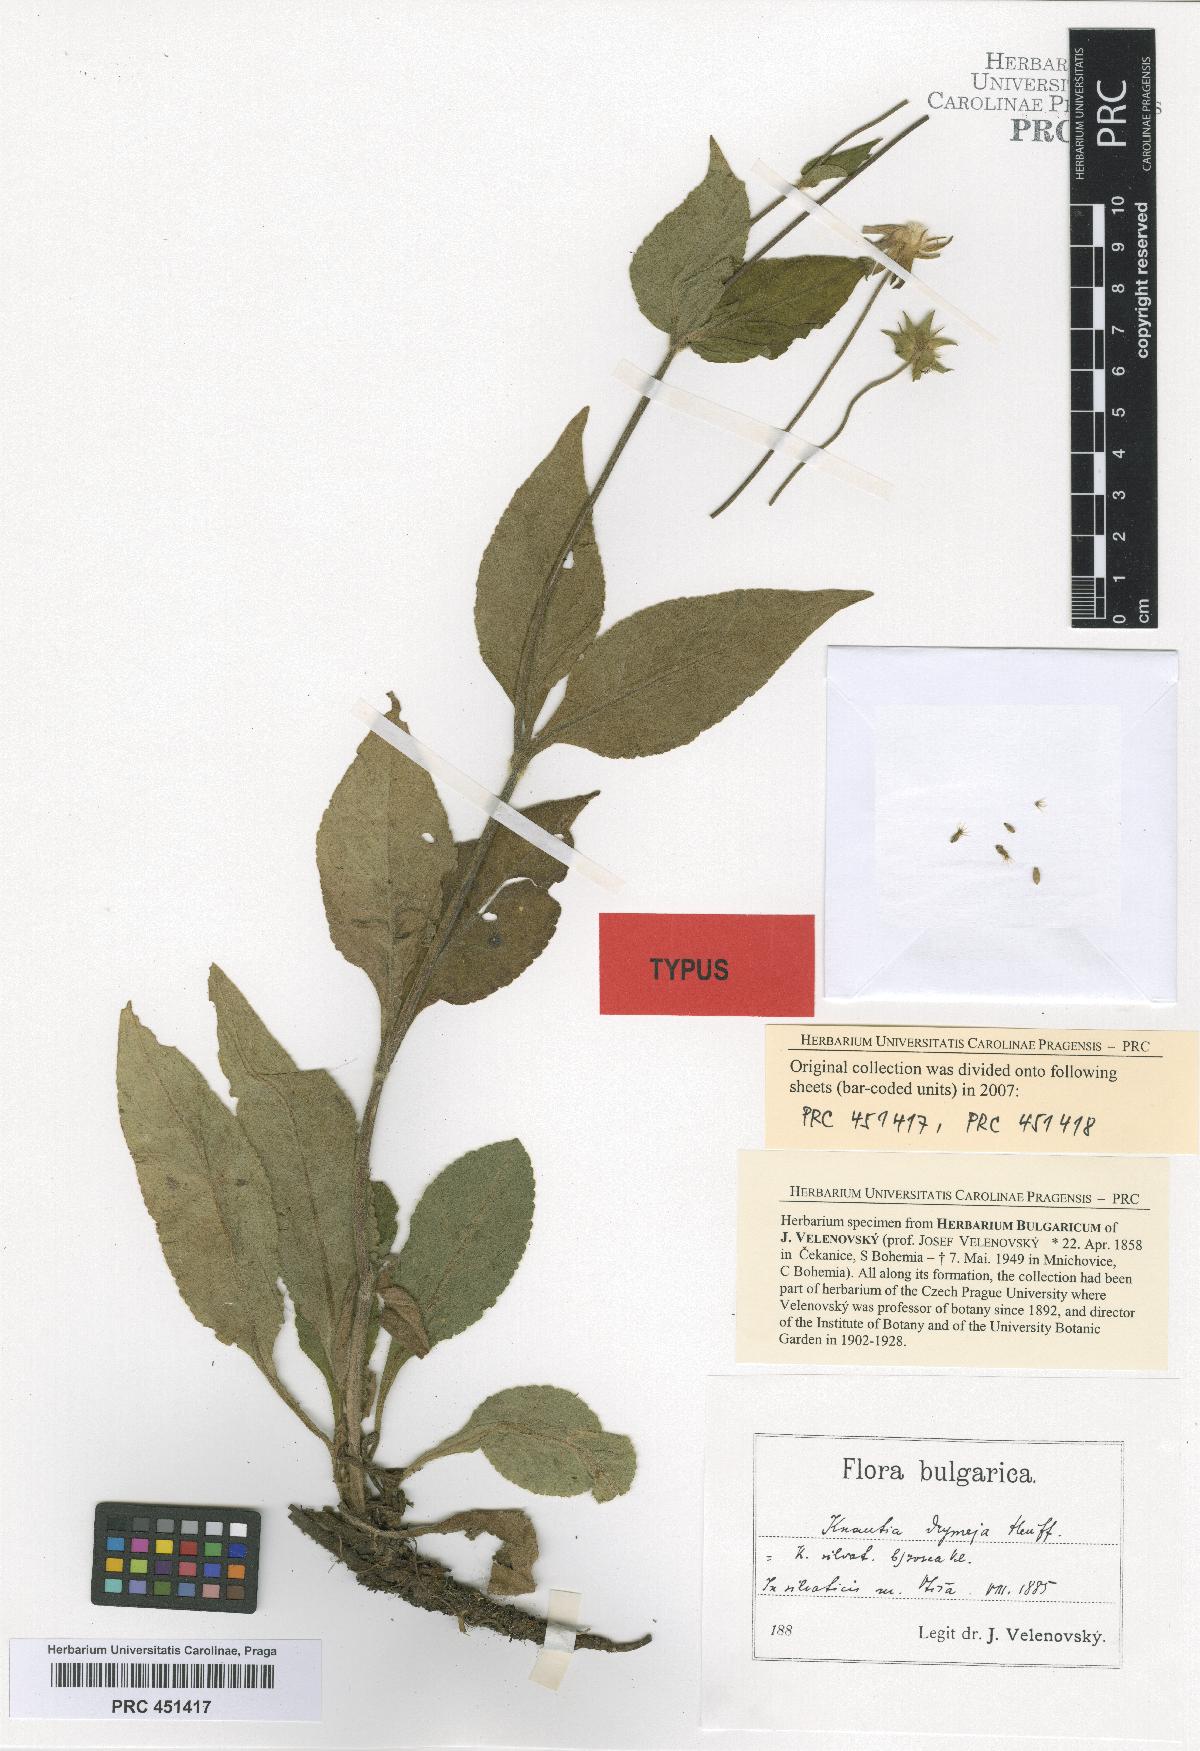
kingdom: Plantae
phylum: Tracheophyta
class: Magnoliopsida
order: Dipsacales
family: Caprifoliaceae
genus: Knautia
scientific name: Knautia drymeia
